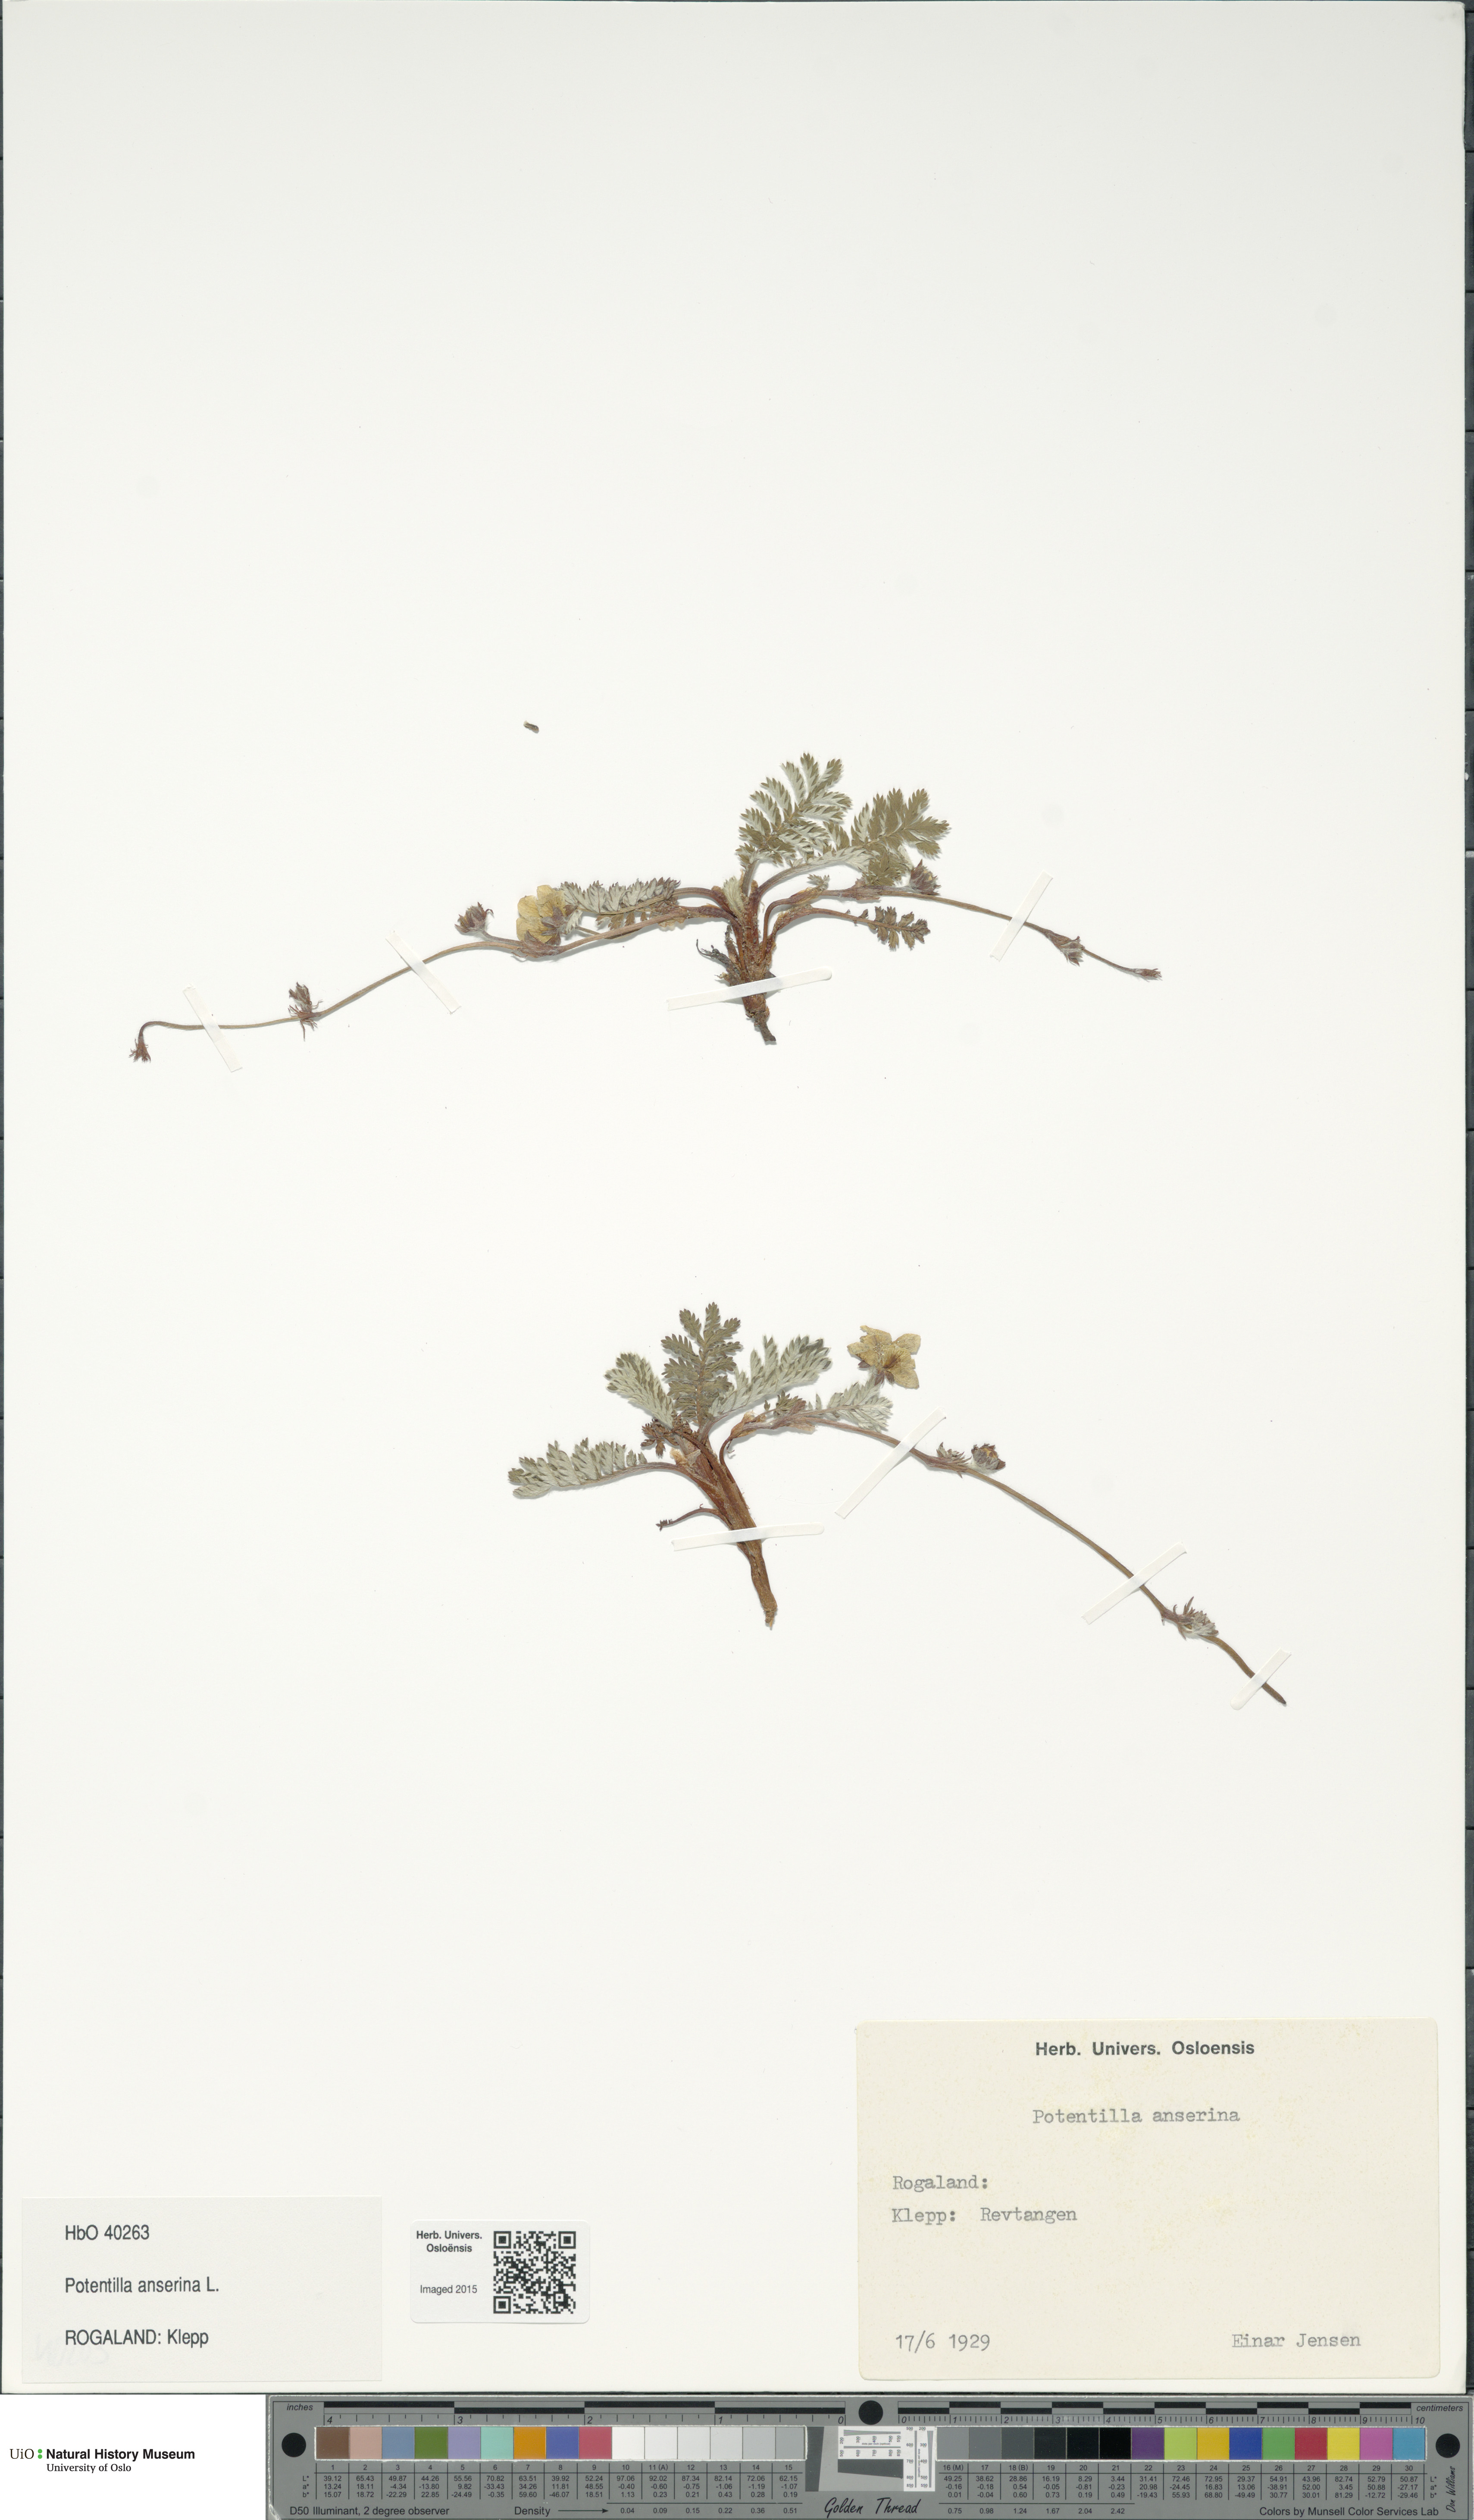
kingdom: Plantae
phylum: Tracheophyta
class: Magnoliopsida
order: Rosales
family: Rosaceae
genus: Argentina
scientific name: Argentina anserina
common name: Common silverweed
